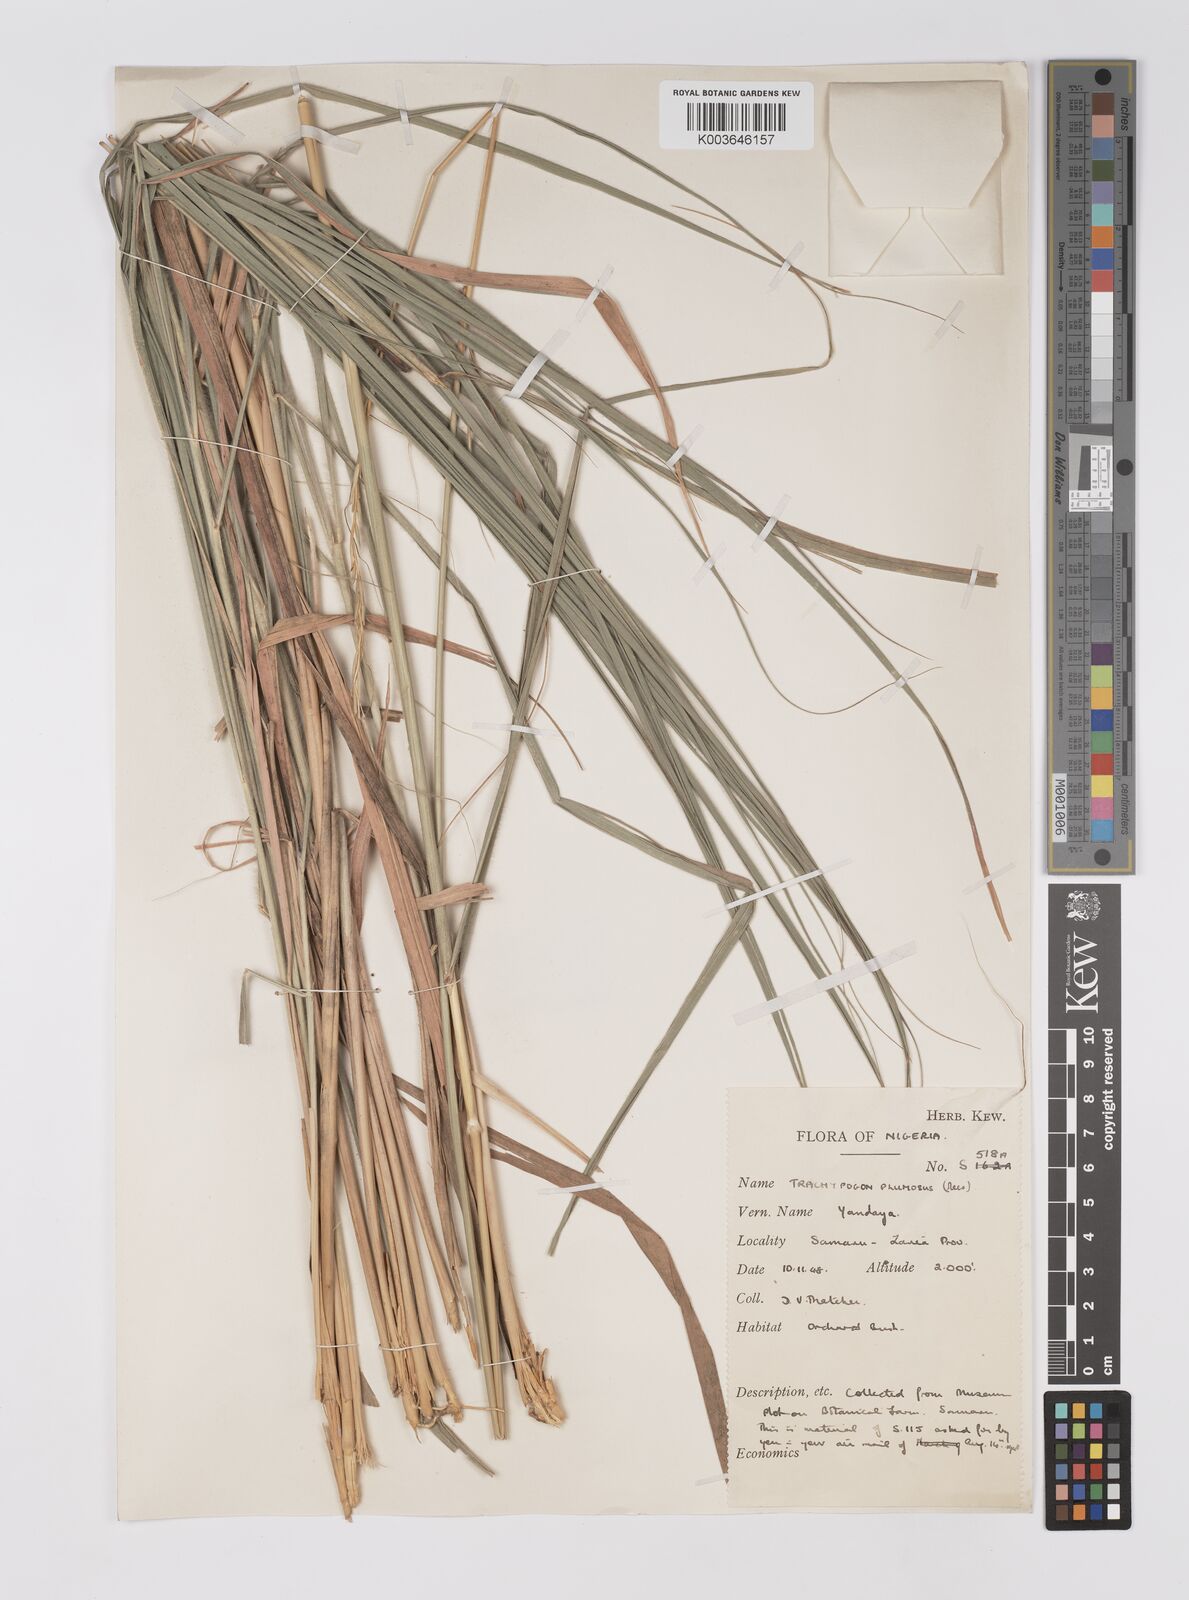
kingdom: Plantae
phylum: Tracheophyta
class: Liliopsida
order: Poales
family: Poaceae
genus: Trachypogon
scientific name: Trachypogon spicatus
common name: Crinkle-awn
